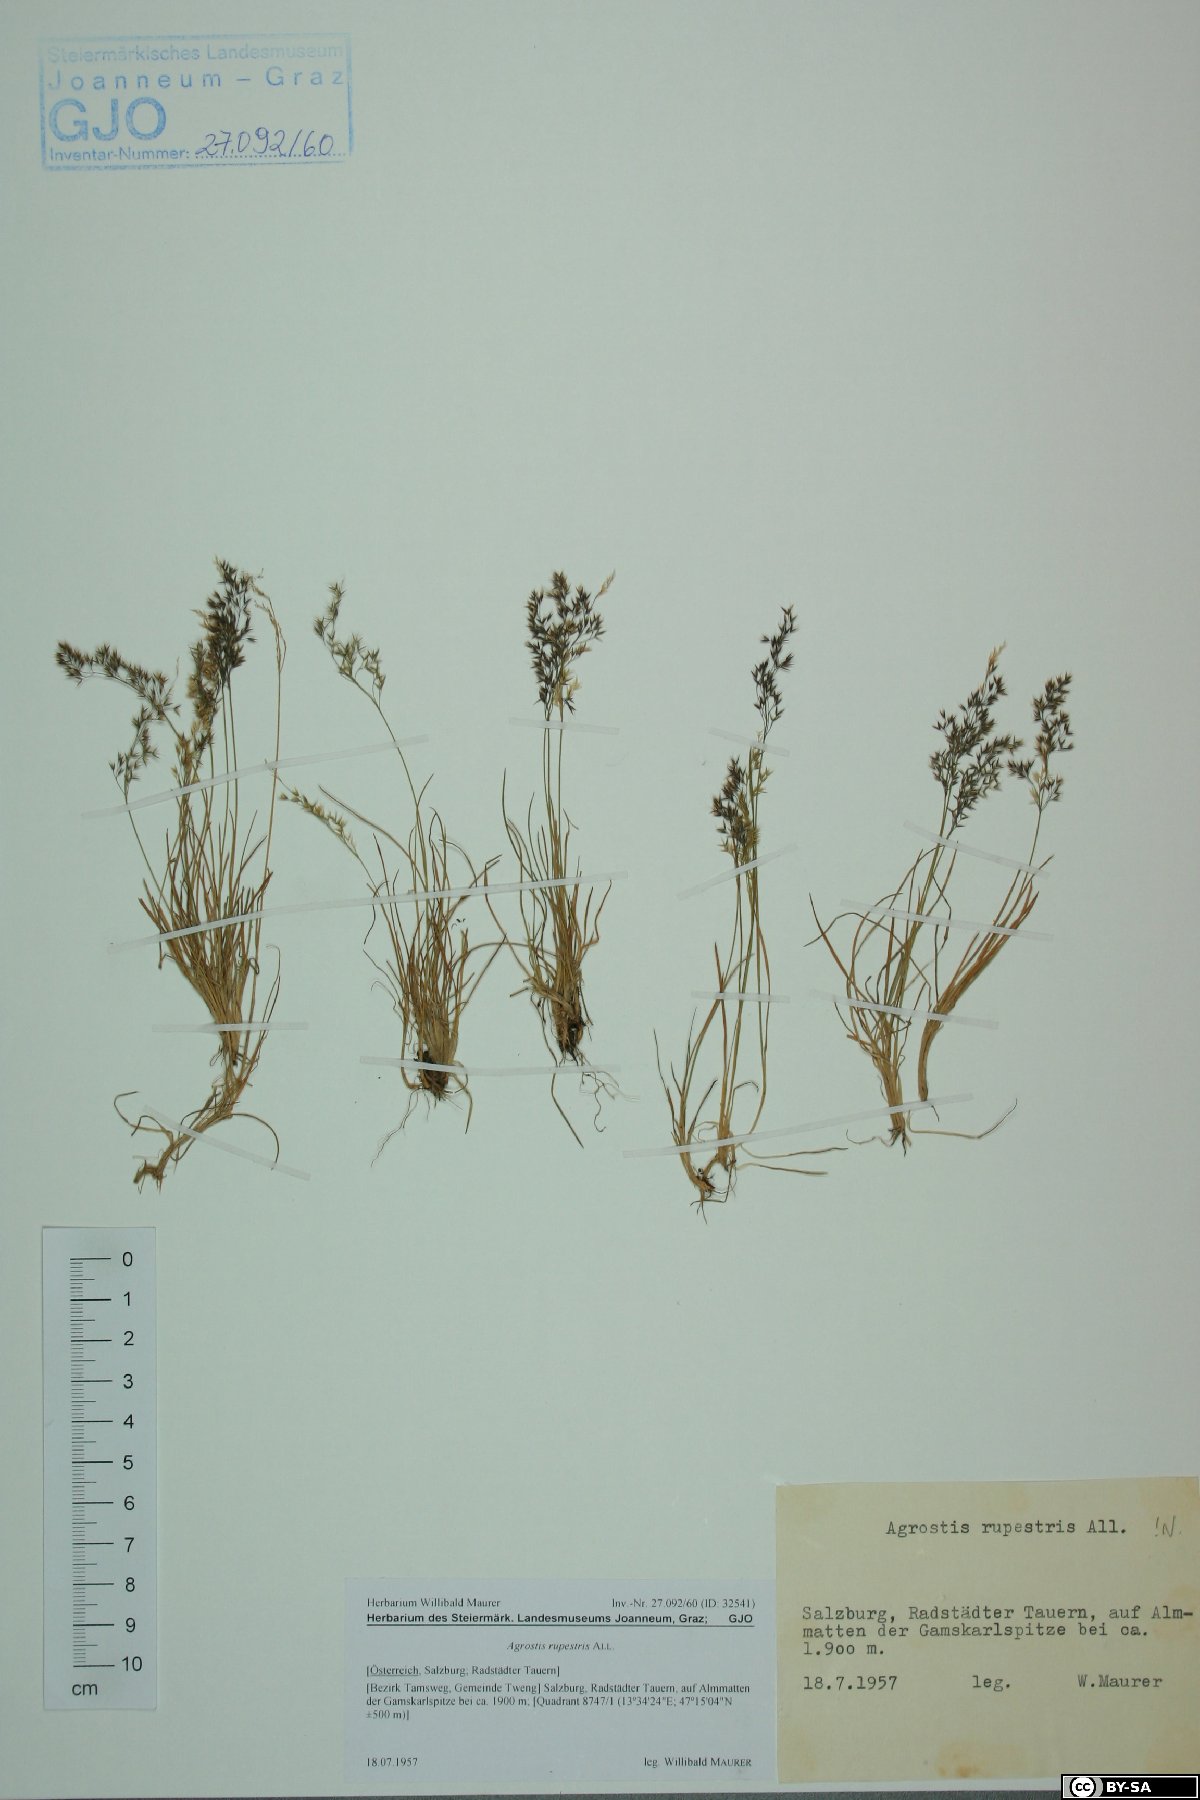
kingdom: Plantae
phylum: Tracheophyta
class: Liliopsida
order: Poales
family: Poaceae
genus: Agrostis
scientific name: Agrostis rupestris
